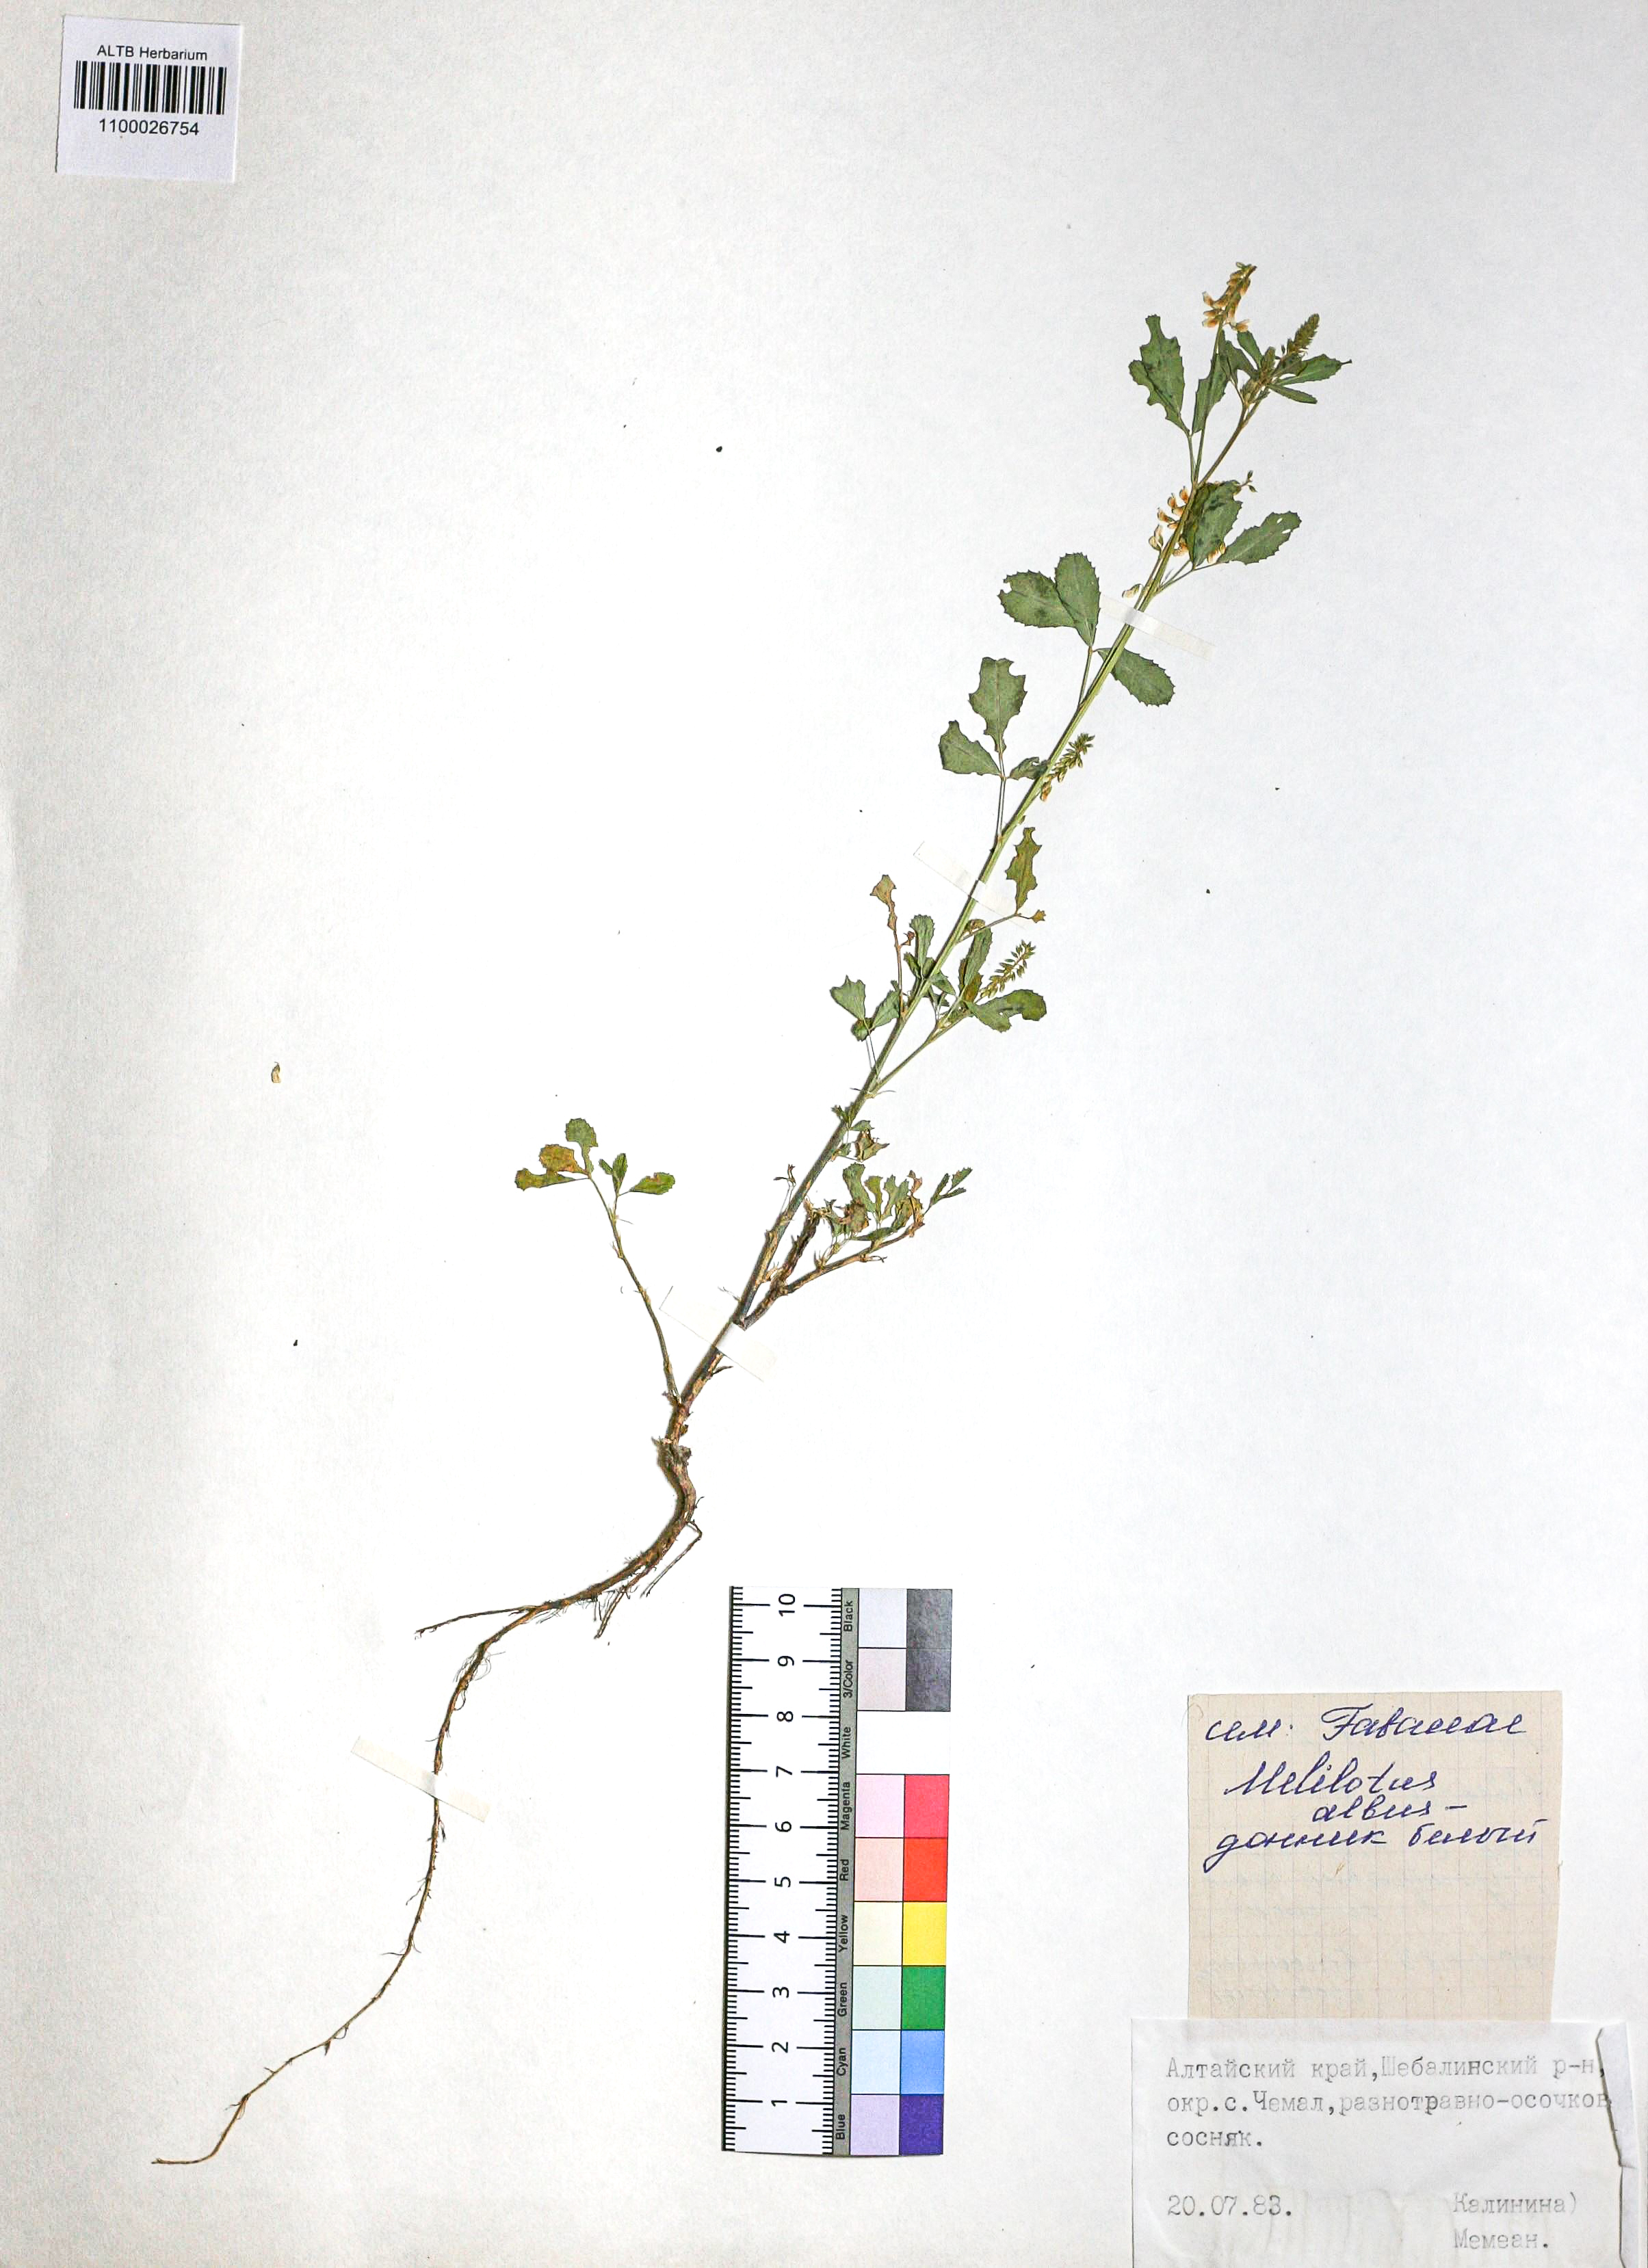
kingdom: Plantae
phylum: Tracheophyta
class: Magnoliopsida
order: Fabales
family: Fabaceae
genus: Melilotus
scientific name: Melilotus albus
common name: White melilot
